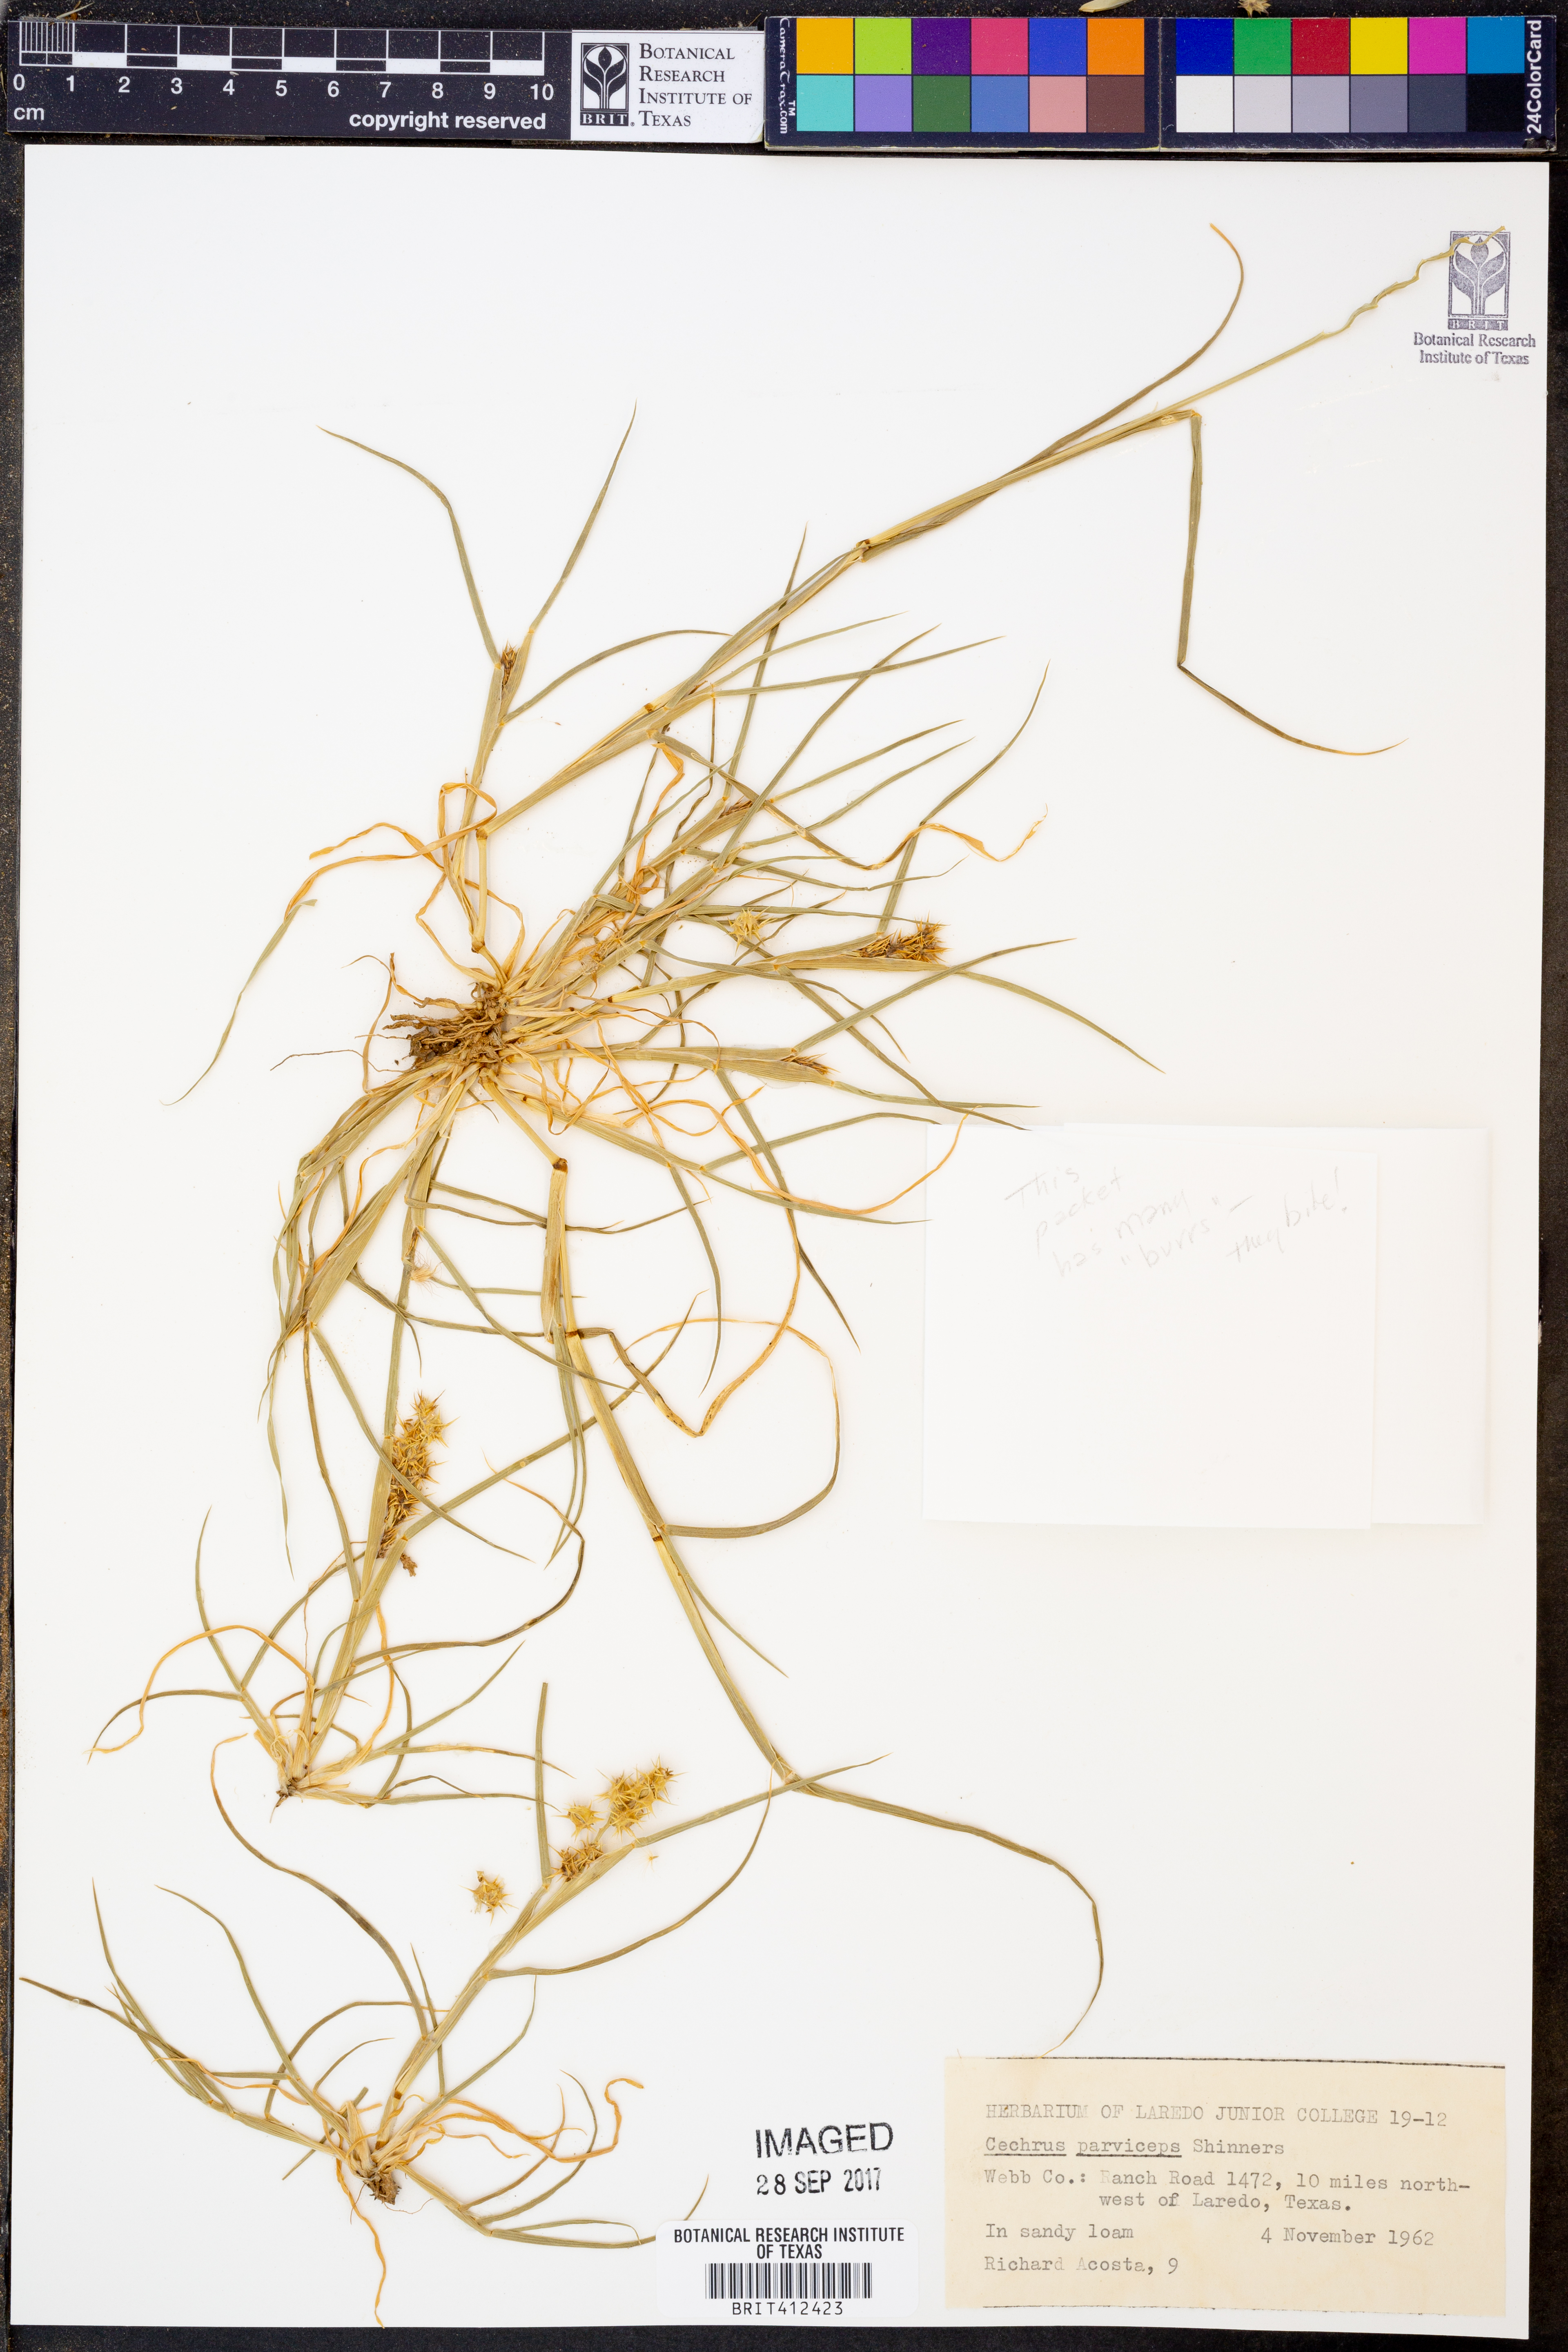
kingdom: Plantae
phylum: Tracheophyta
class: Liliopsida
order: Poales
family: Poaceae
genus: Cenchrus
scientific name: Cenchrus spinifex
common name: Coast sandbur
